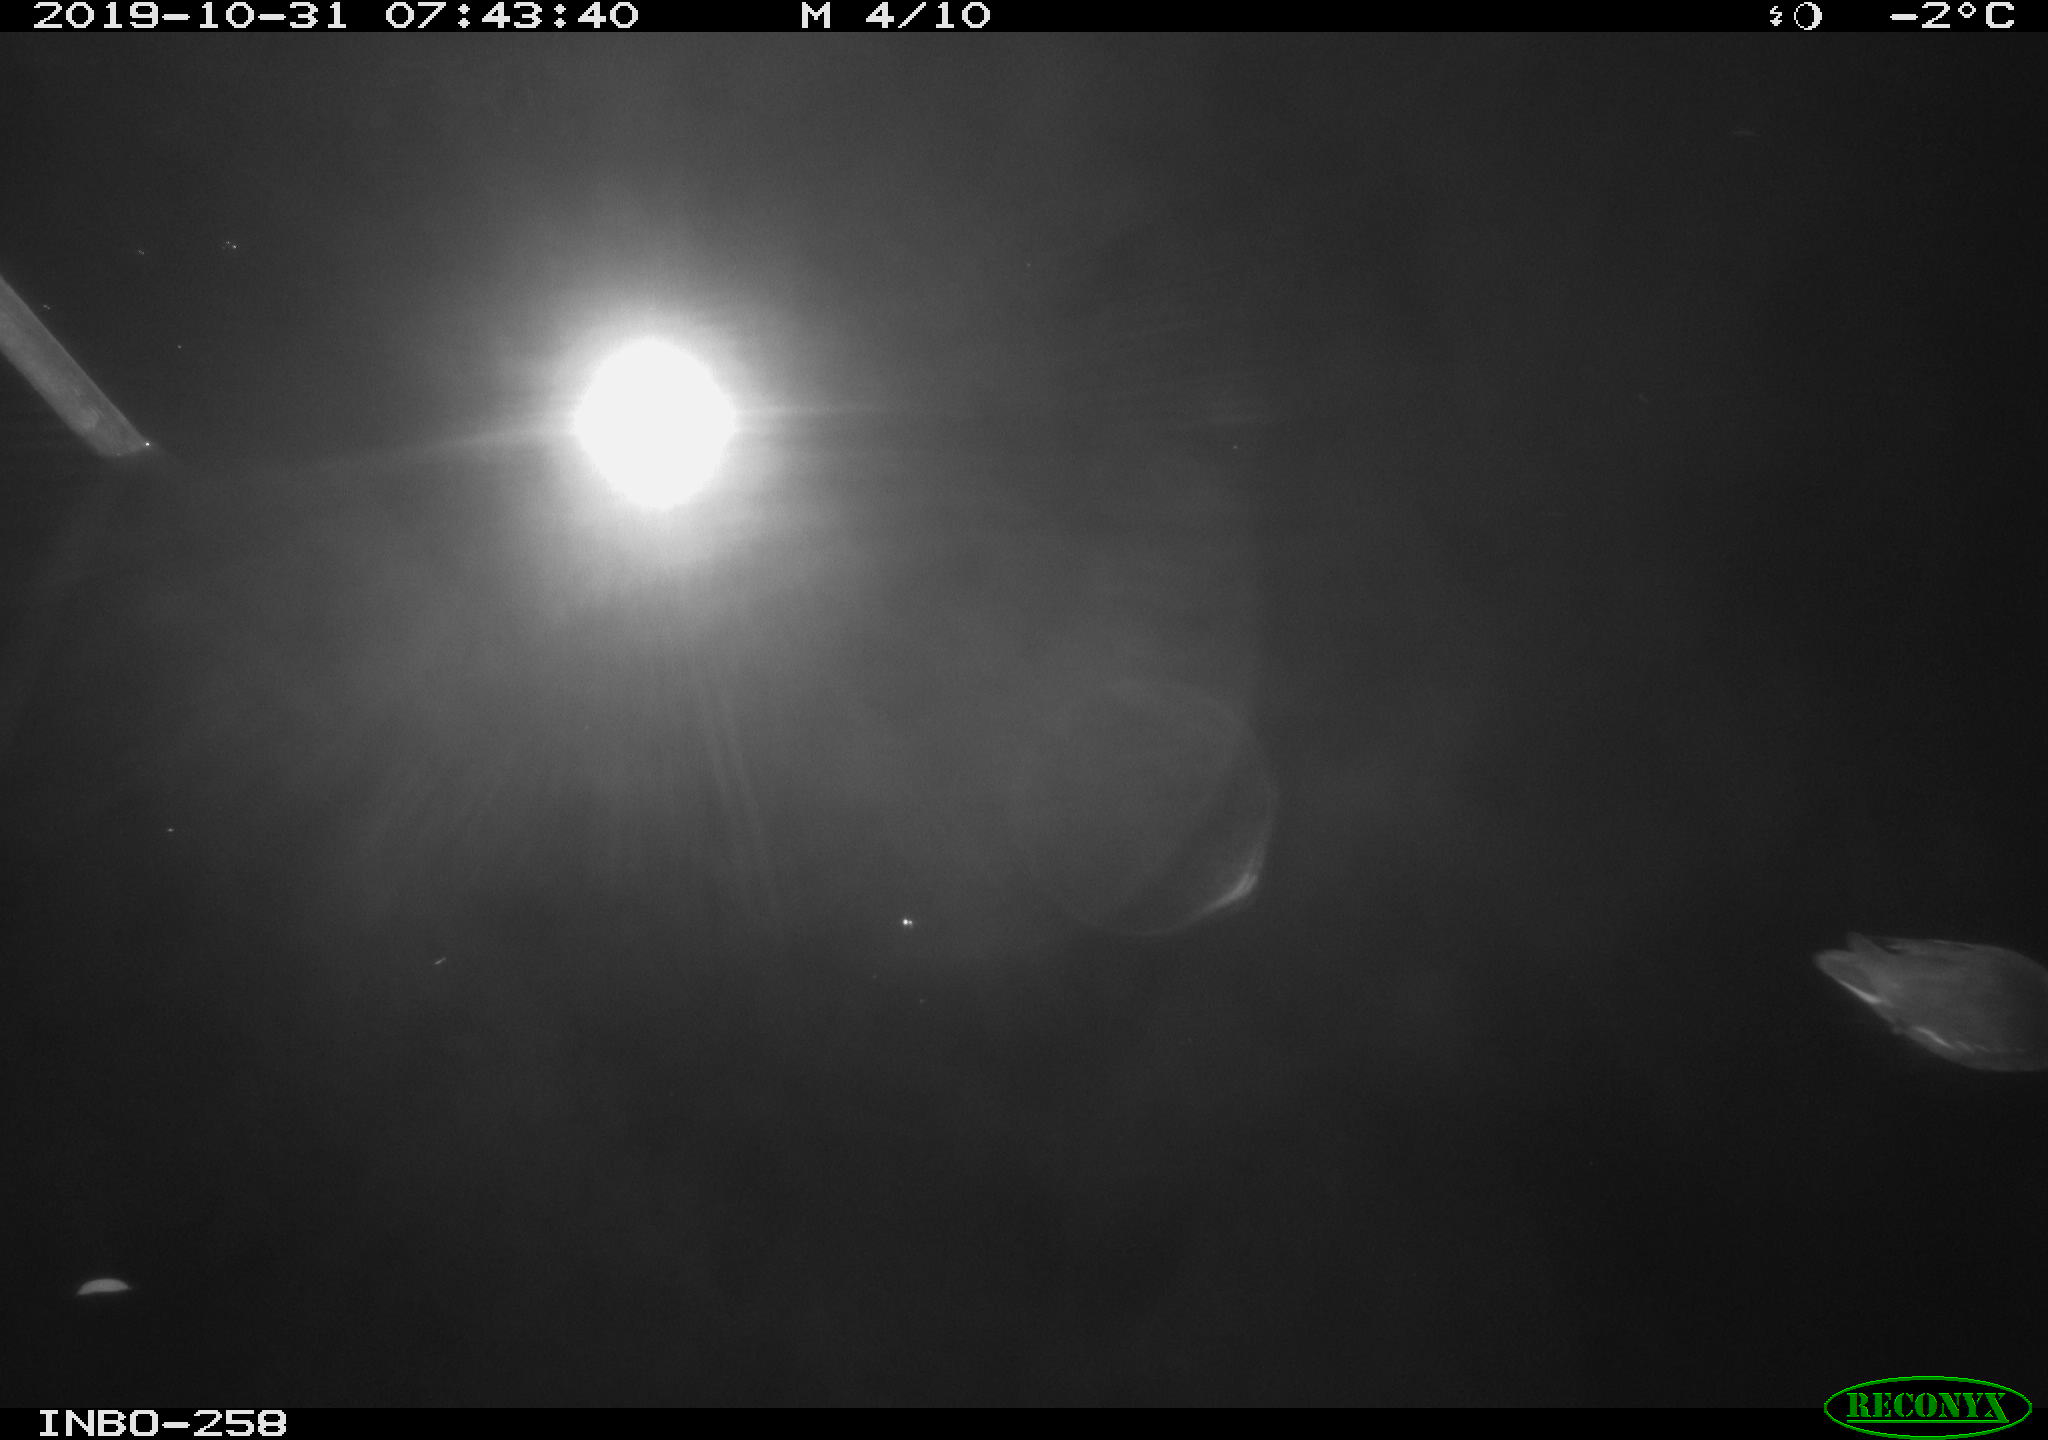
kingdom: Animalia
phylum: Chordata
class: Aves
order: Gruiformes
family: Rallidae
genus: Gallinula
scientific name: Gallinula chloropus
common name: Common moorhen
